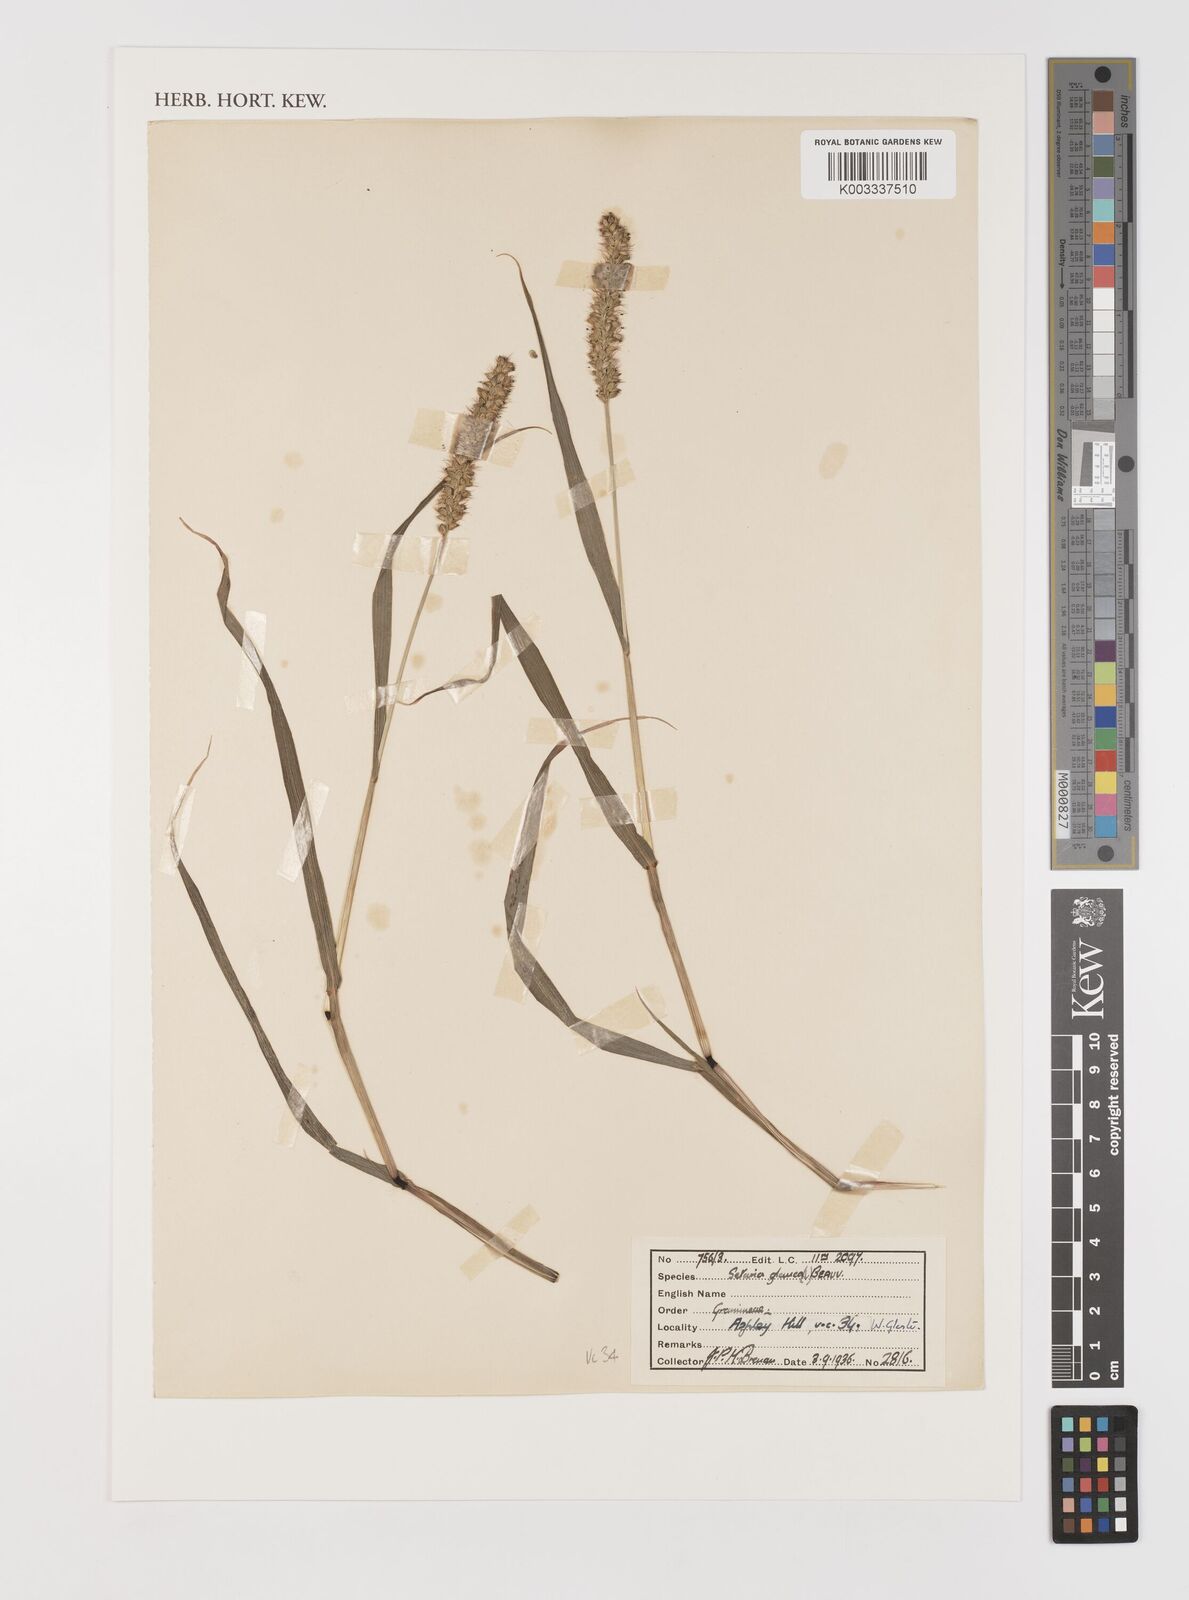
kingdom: Plantae
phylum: Tracheophyta
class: Liliopsida
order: Poales
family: Poaceae
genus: Setaria
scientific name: Setaria pumila
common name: Yellow bristle-grass
